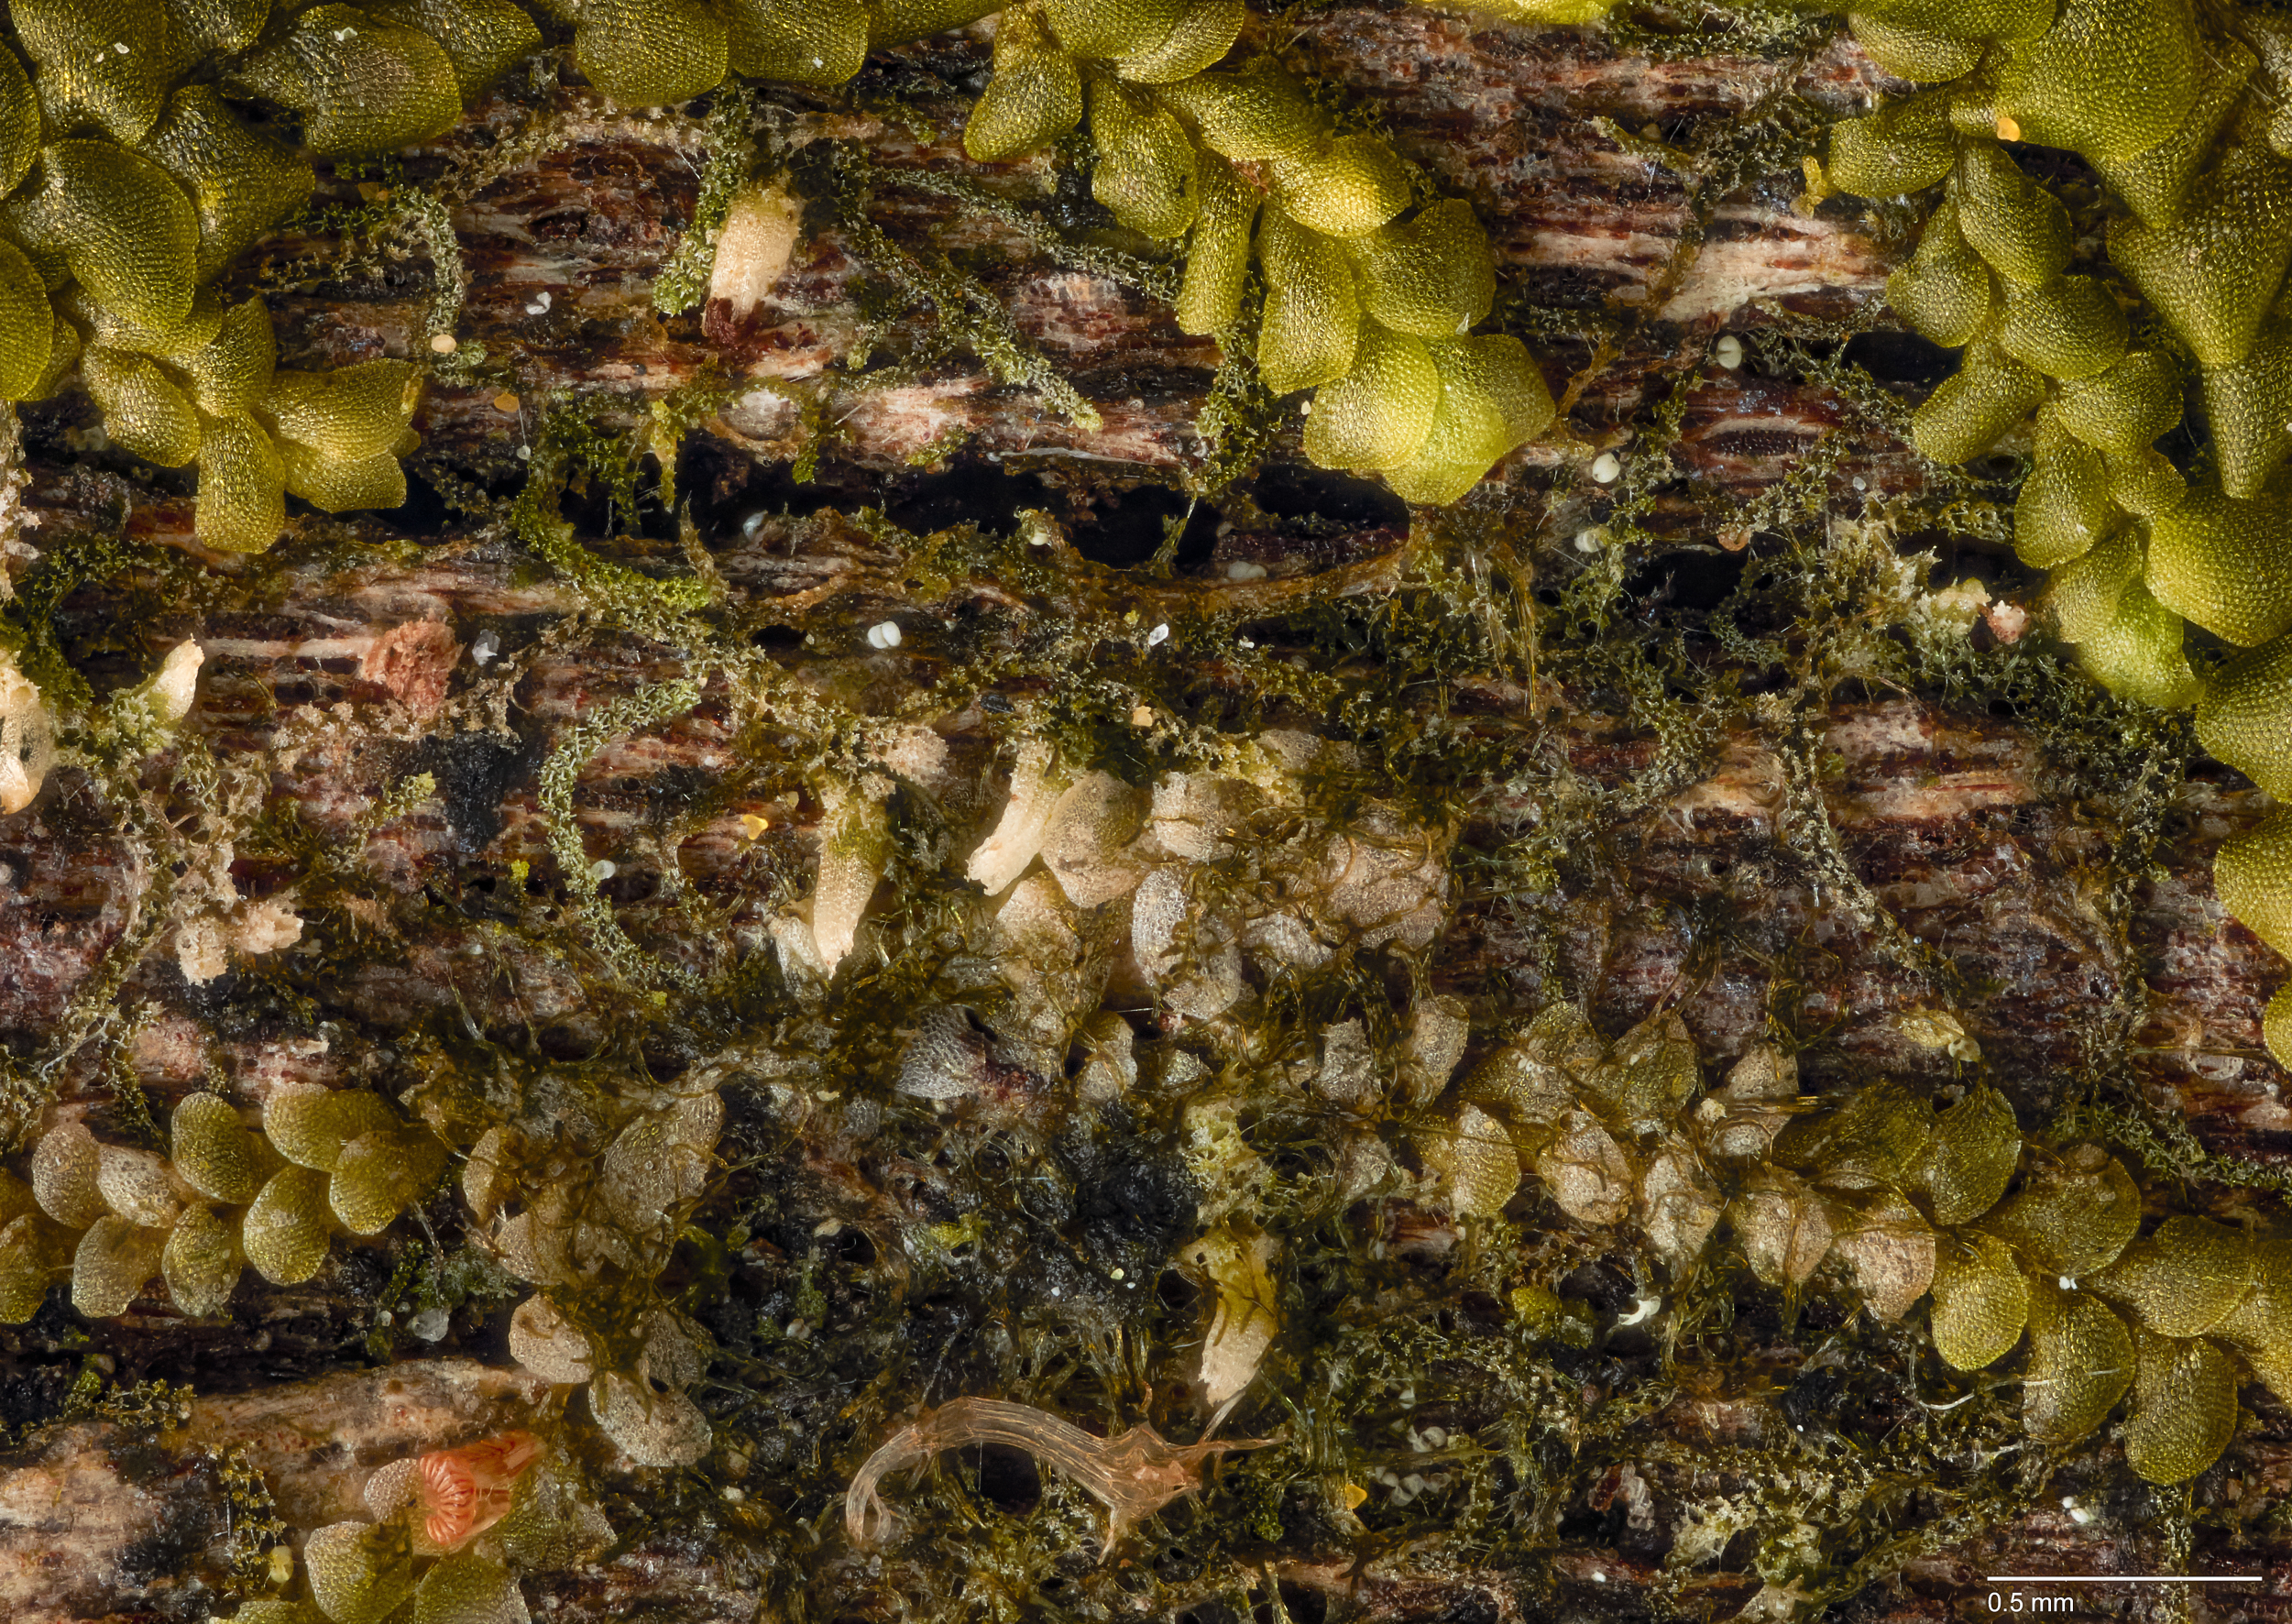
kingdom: Plantae
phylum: Marchantiophyta
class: Jungermanniopsida
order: Jungermanniales
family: Cephaloziellaceae
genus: Cephaloziella
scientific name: Cephaloziella
